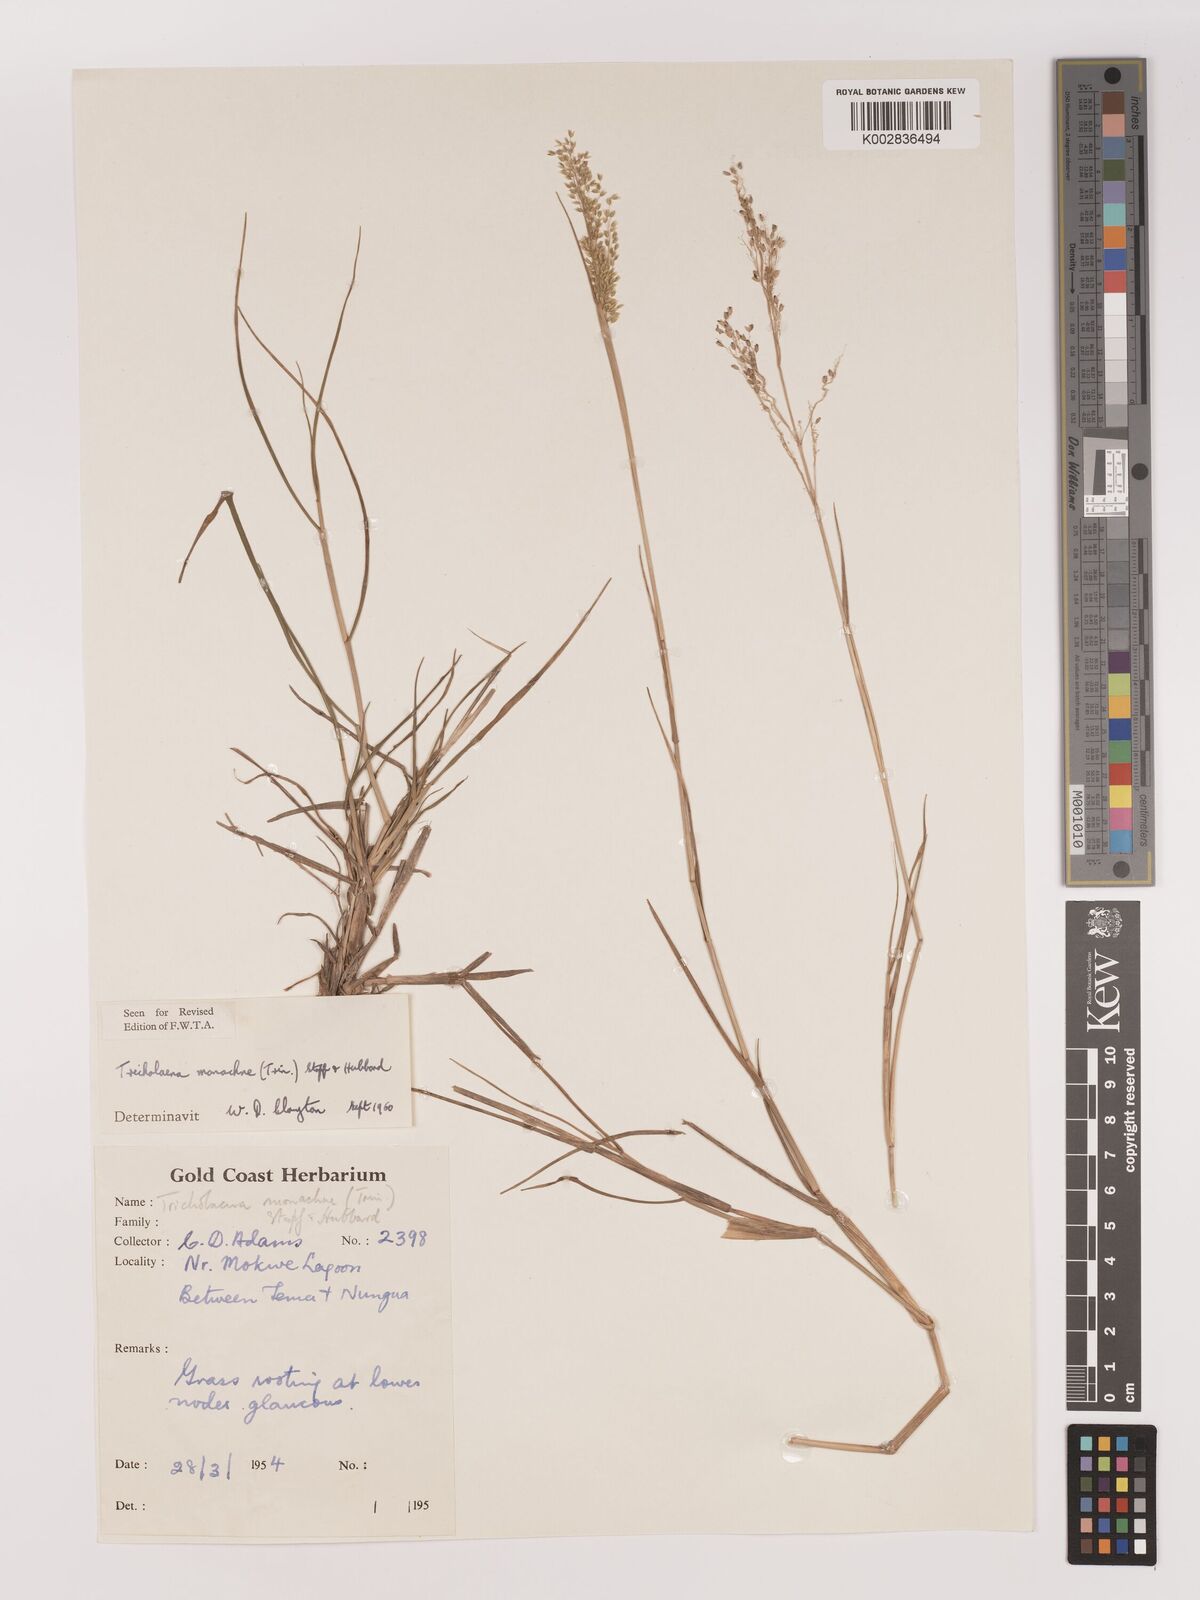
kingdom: Plantae
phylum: Tracheophyta
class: Liliopsida
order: Poales
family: Poaceae
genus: Tricholaena
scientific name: Tricholaena monachne
